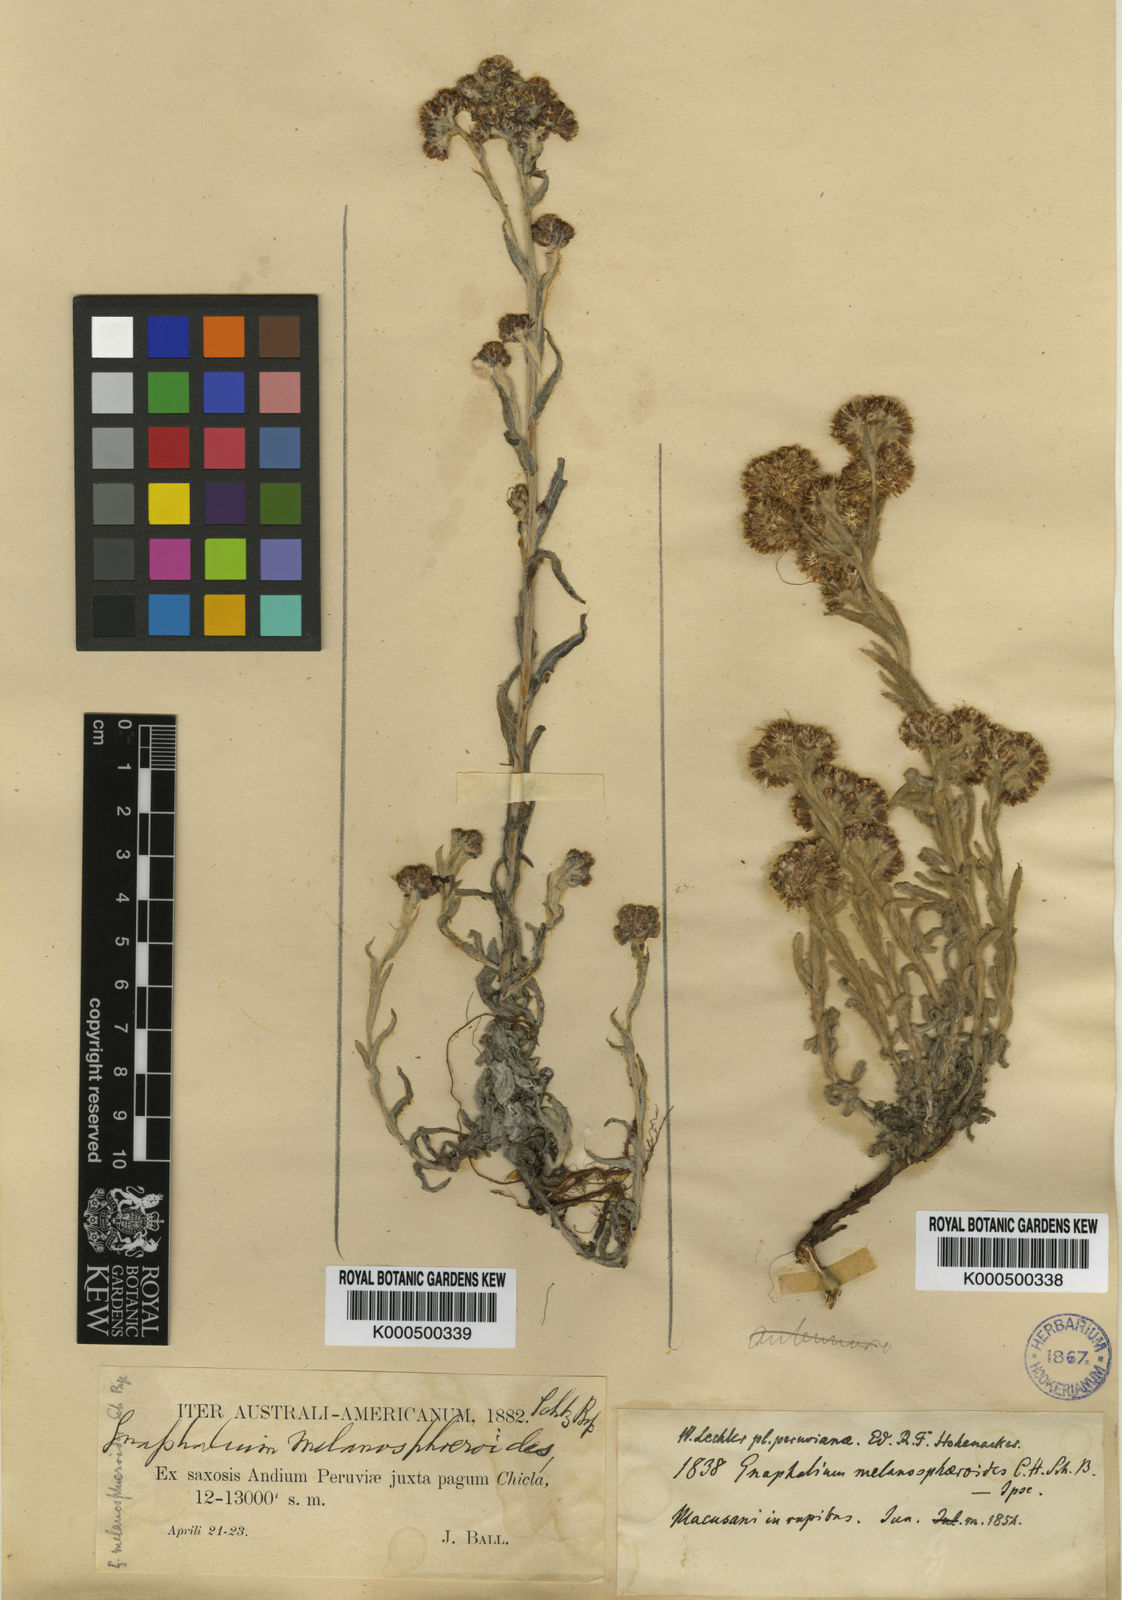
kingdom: Plantae
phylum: Tracheophyta
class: Magnoliopsida
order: Asterales
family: Asteraceae
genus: Gnaphalium
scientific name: Gnaphalium
